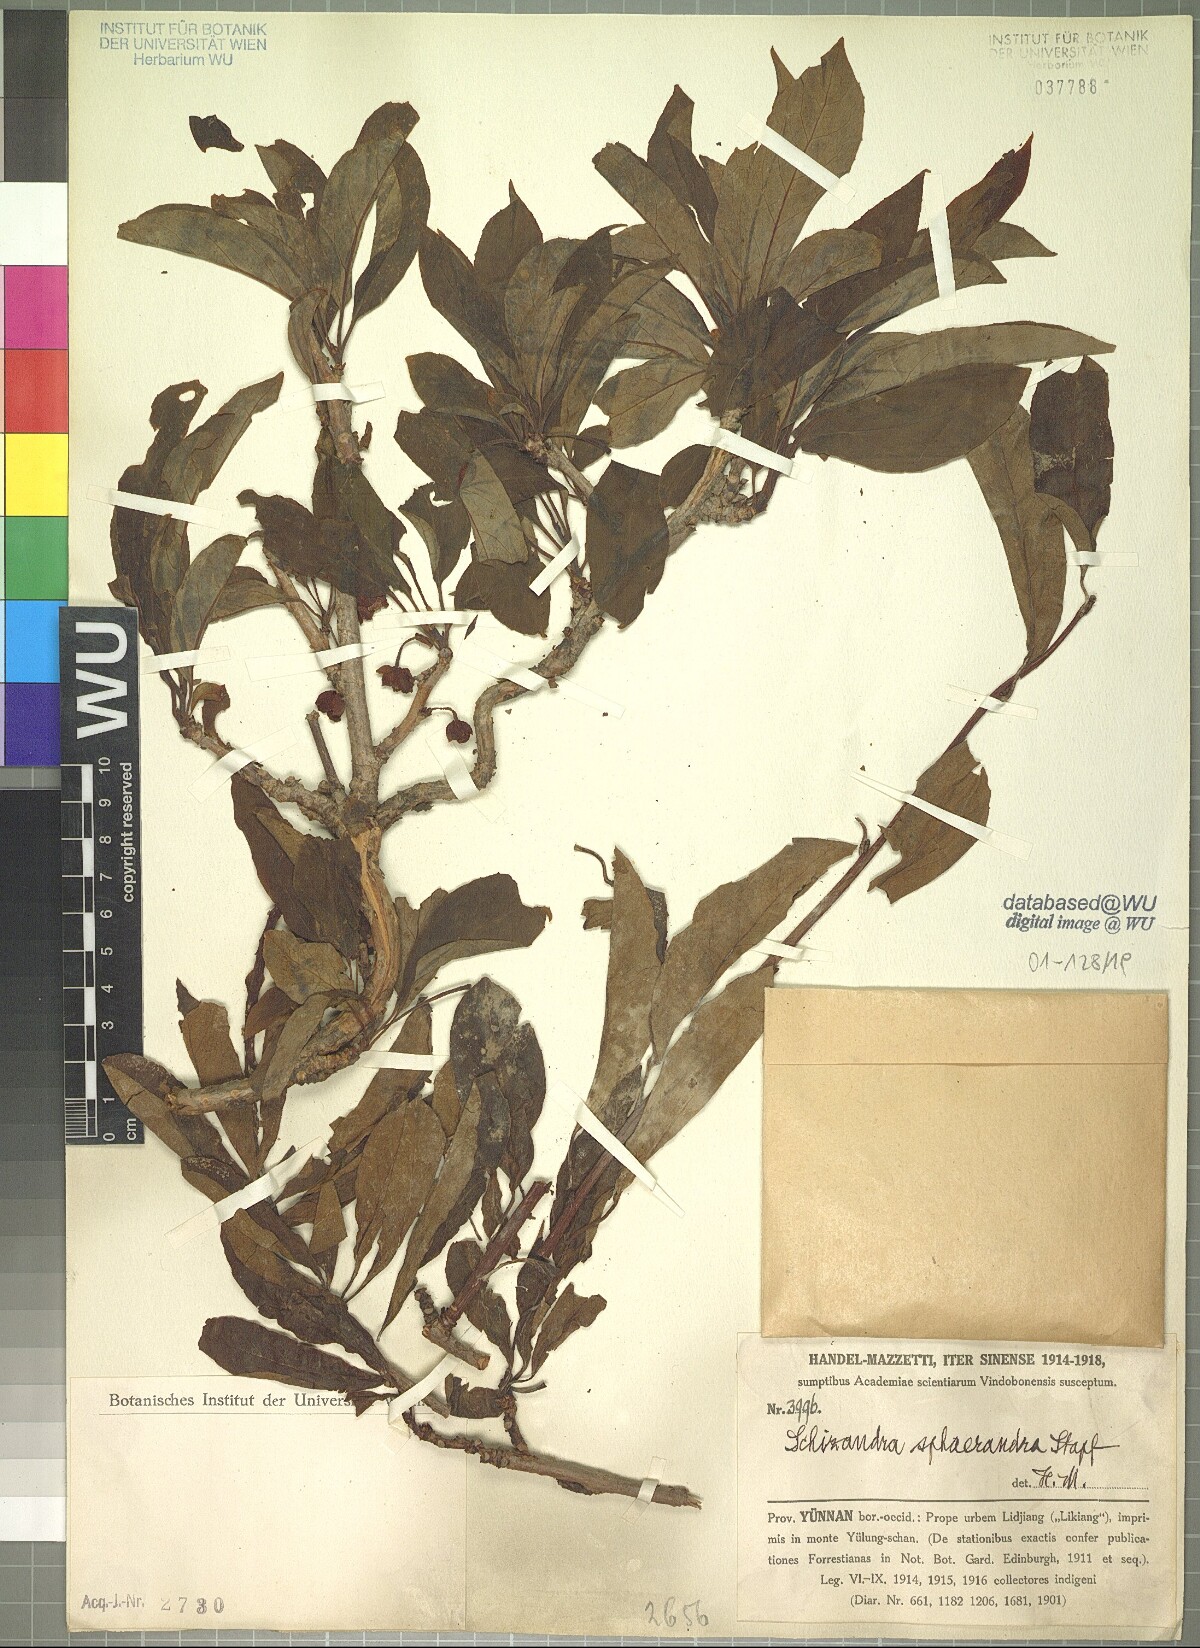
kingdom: Plantae
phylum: Tracheophyta
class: Magnoliopsida
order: Austrobaileyales
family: Schisandraceae
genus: Schisandra
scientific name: Schisandra sphaerandra
